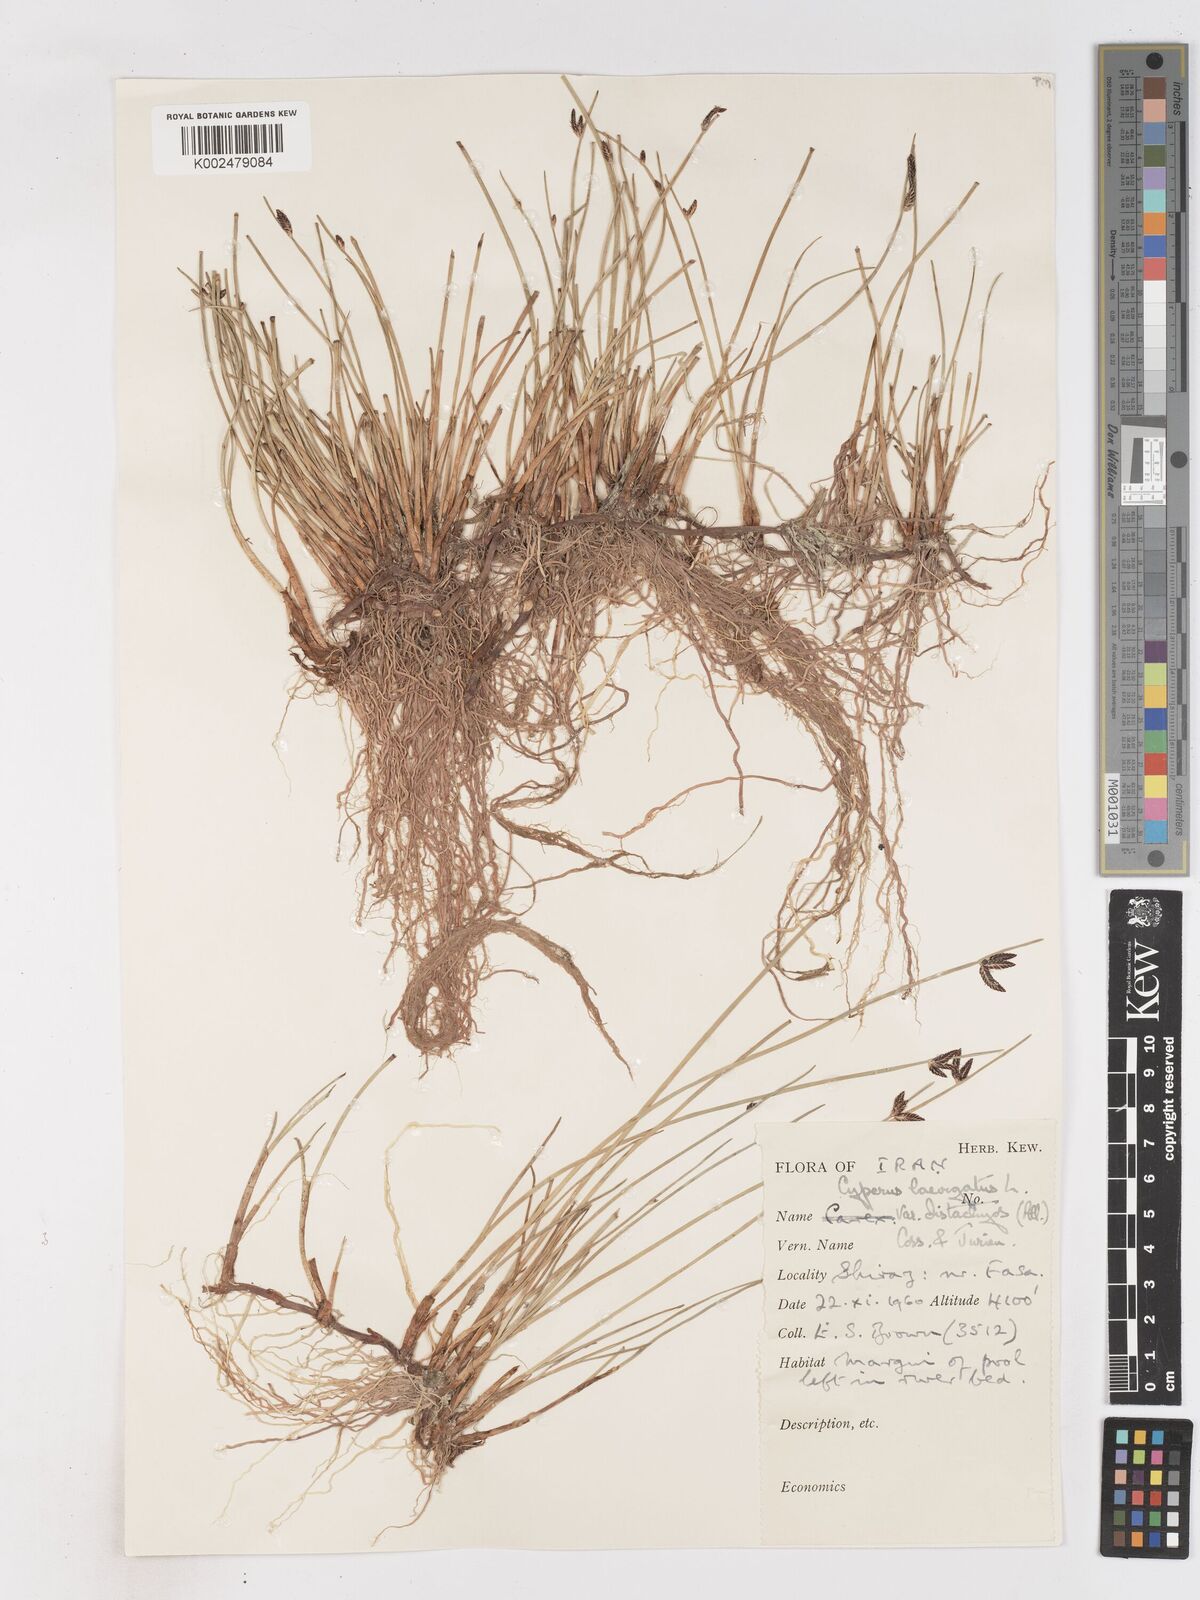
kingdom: Plantae
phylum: Tracheophyta
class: Liliopsida
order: Poales
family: Cyperaceae
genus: Cyperus
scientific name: Cyperus laevigatus
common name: Smooth flat sedge
